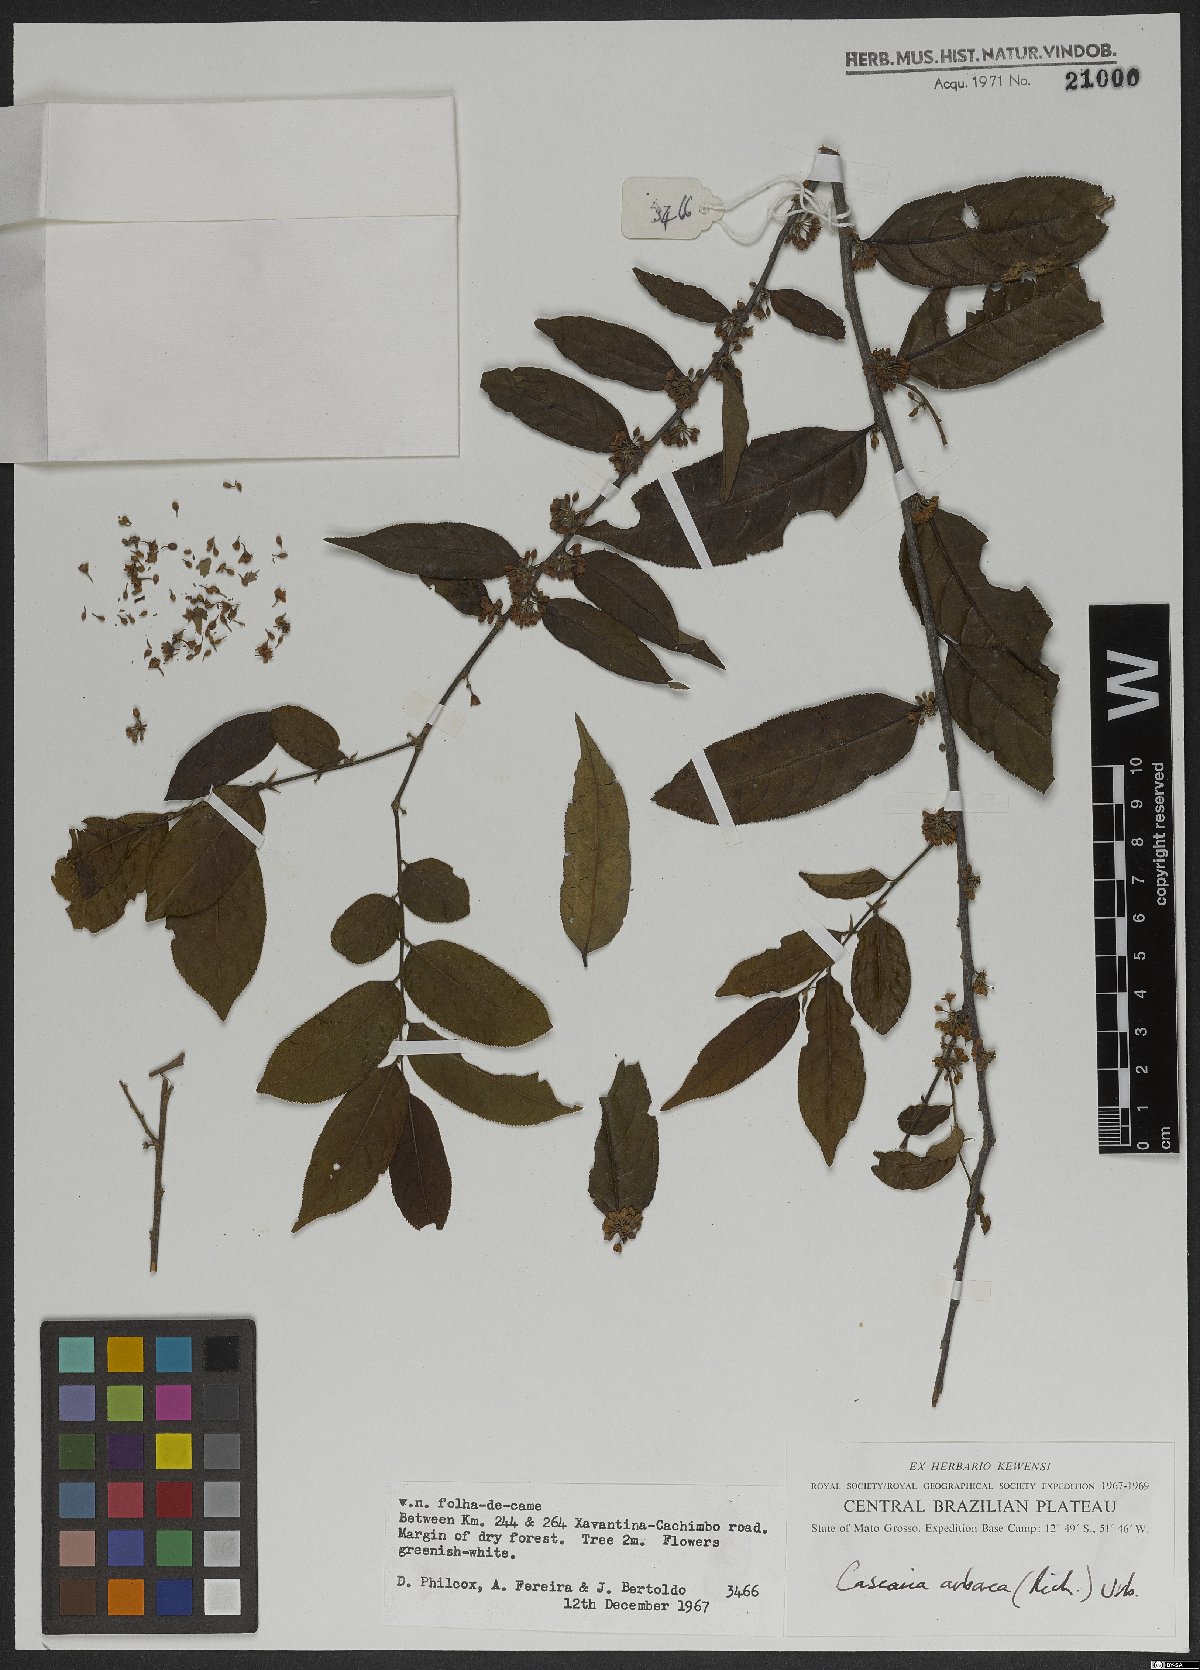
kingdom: Plantae
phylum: Tracheophyta
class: Magnoliopsida
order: Malpighiales
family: Salicaceae
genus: Casearia
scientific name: Casearia arborea
